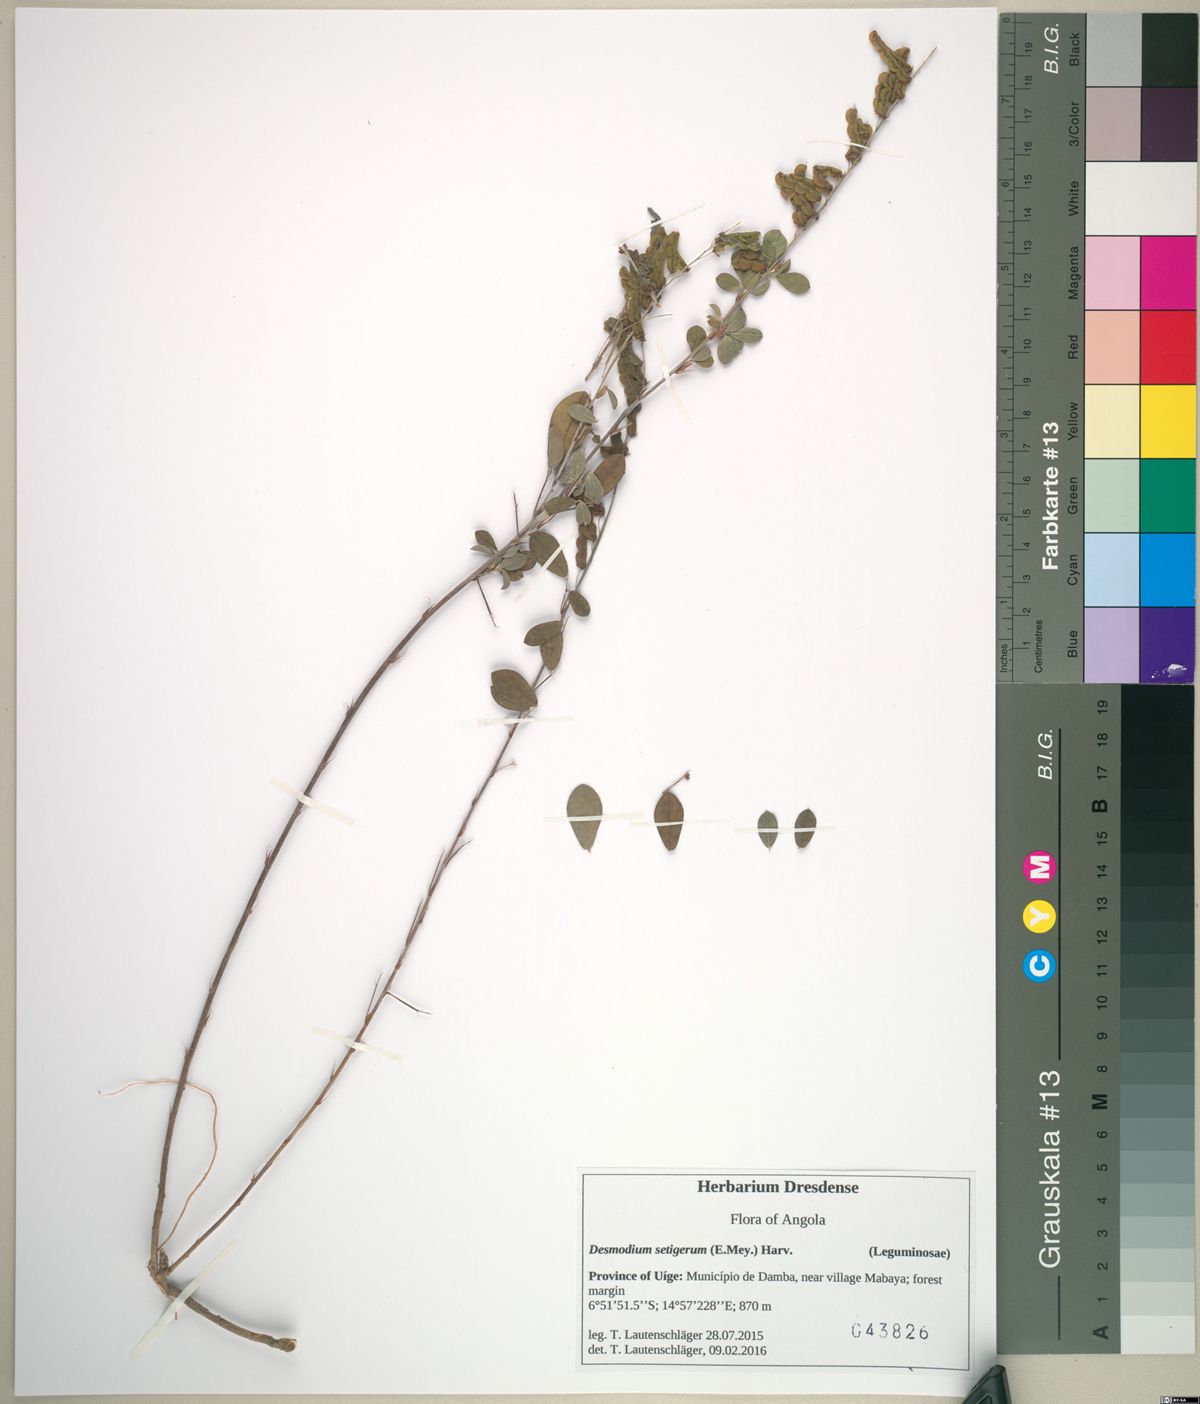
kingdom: Plantae
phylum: Tracheophyta
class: Magnoliopsida
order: Fabales
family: Fabaceae
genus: Grona
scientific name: Grona ramosissima
